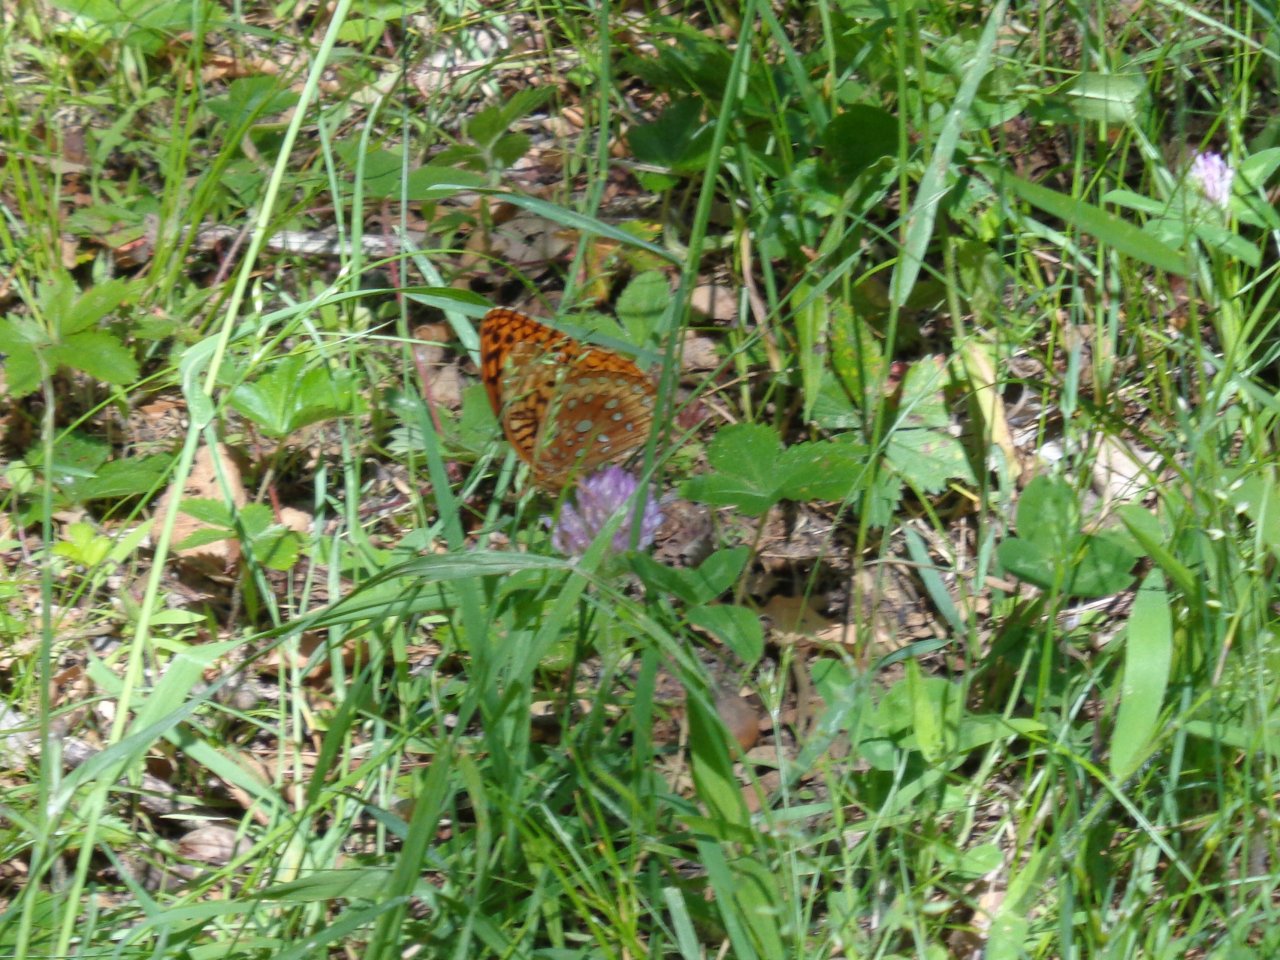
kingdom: Animalia
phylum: Arthropoda
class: Insecta
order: Lepidoptera
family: Nymphalidae
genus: Speyeria
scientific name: Speyeria cybele
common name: Great Spangled Fritillary
